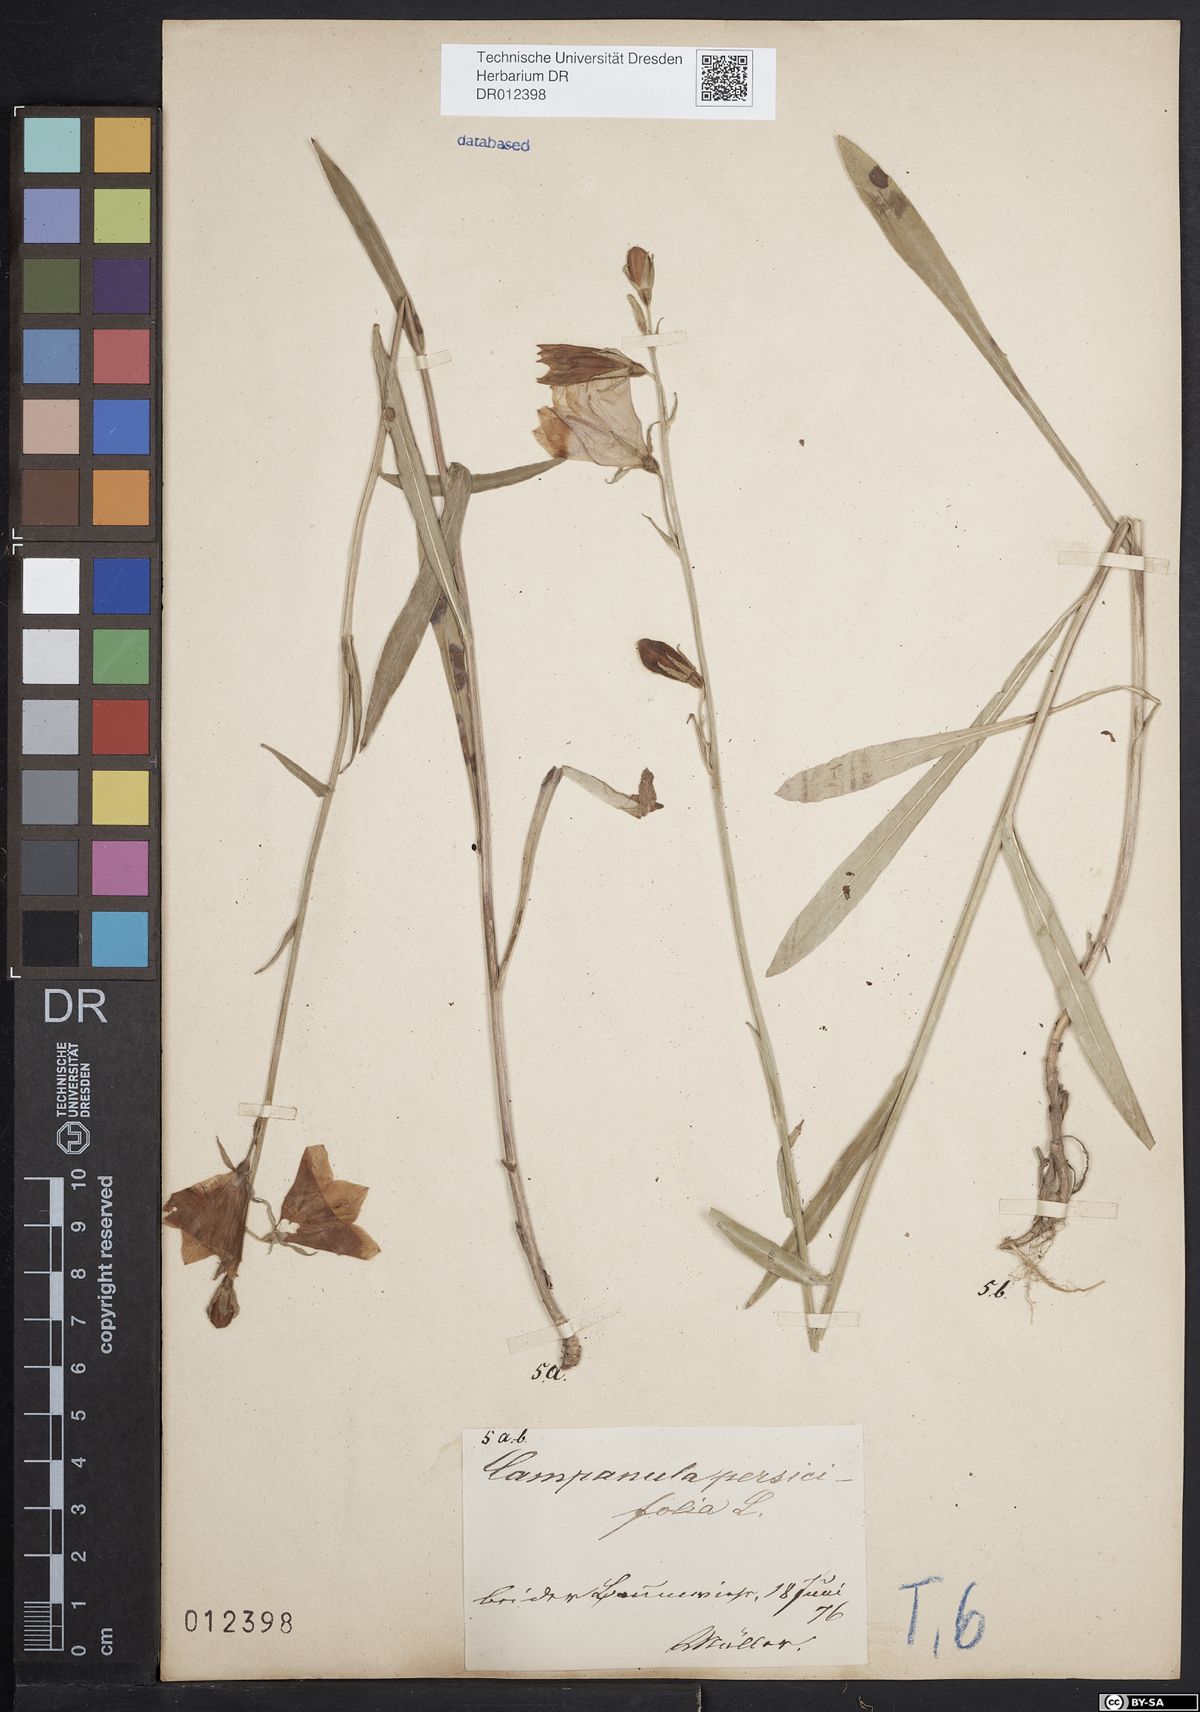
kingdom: Plantae
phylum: Tracheophyta
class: Magnoliopsida
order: Asterales
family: Campanulaceae
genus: Campanula
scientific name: Campanula persicifolia
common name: Peach-leaved bellflower
